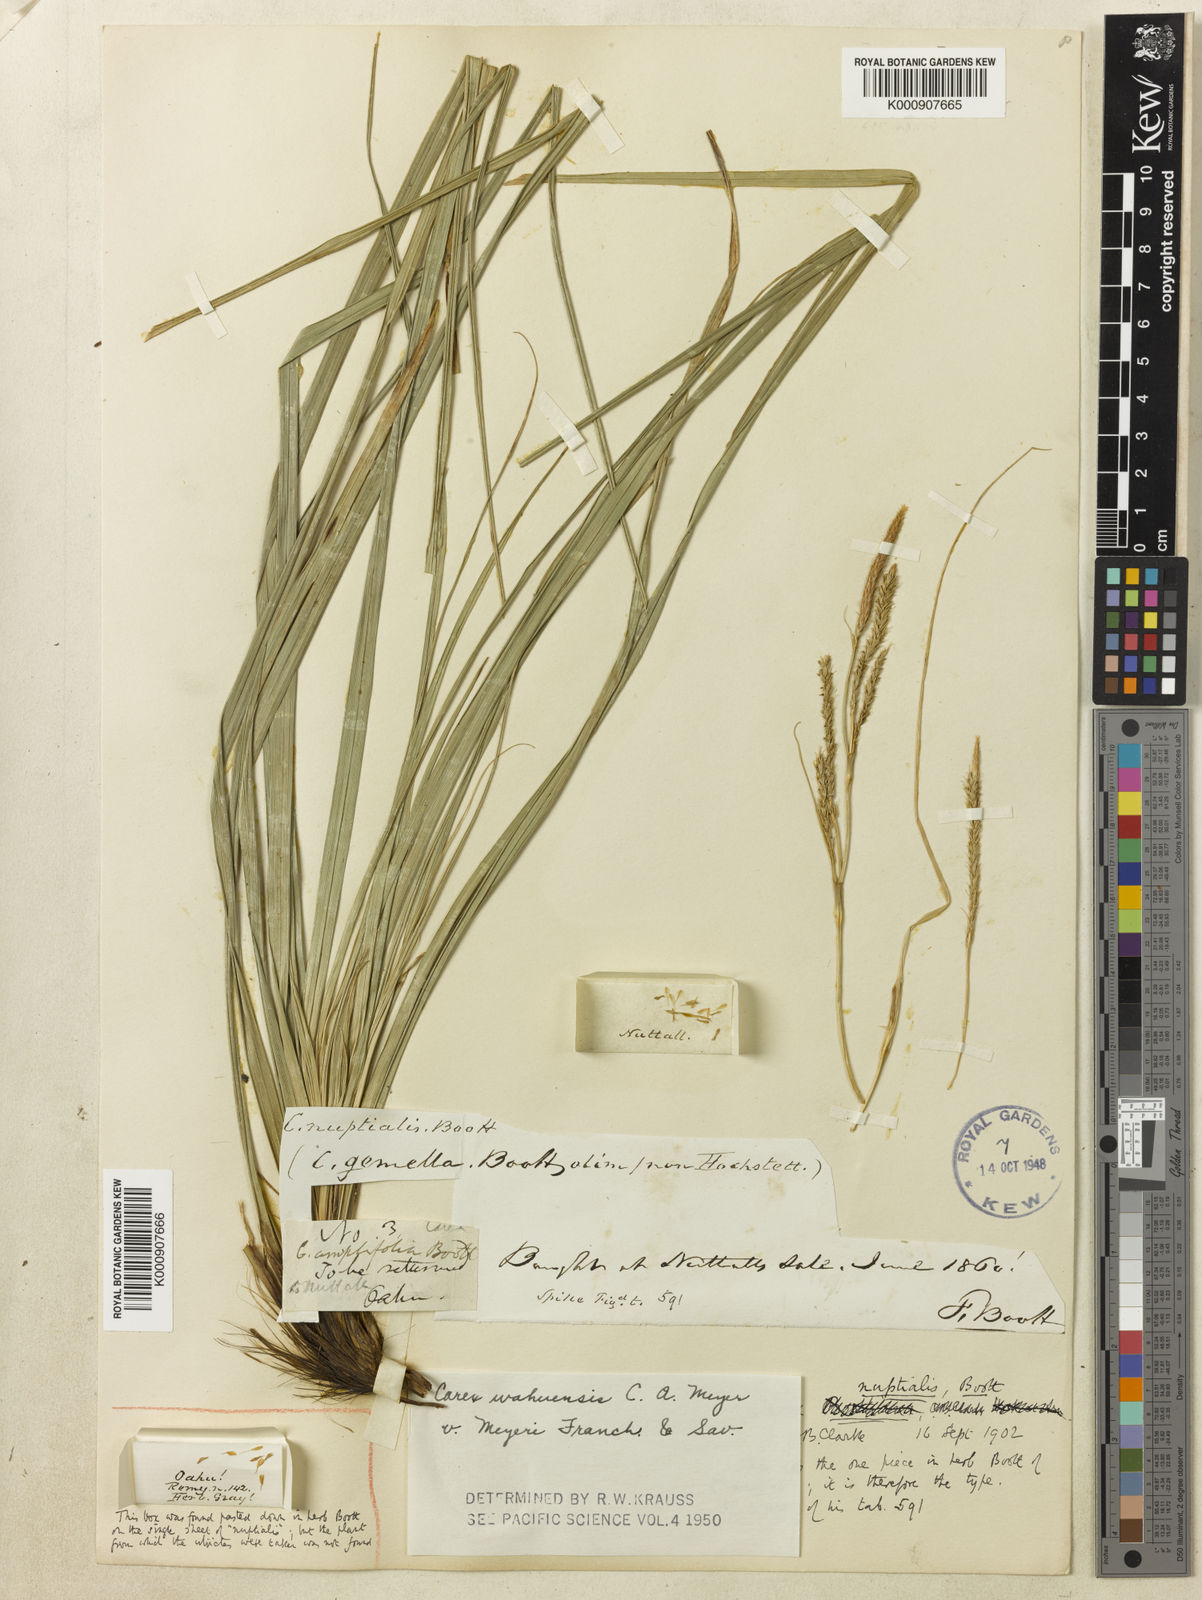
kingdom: Plantae
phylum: Tracheophyta
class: Liliopsida
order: Poales
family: Cyperaceae
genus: Carex
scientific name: Carex wahuensis
